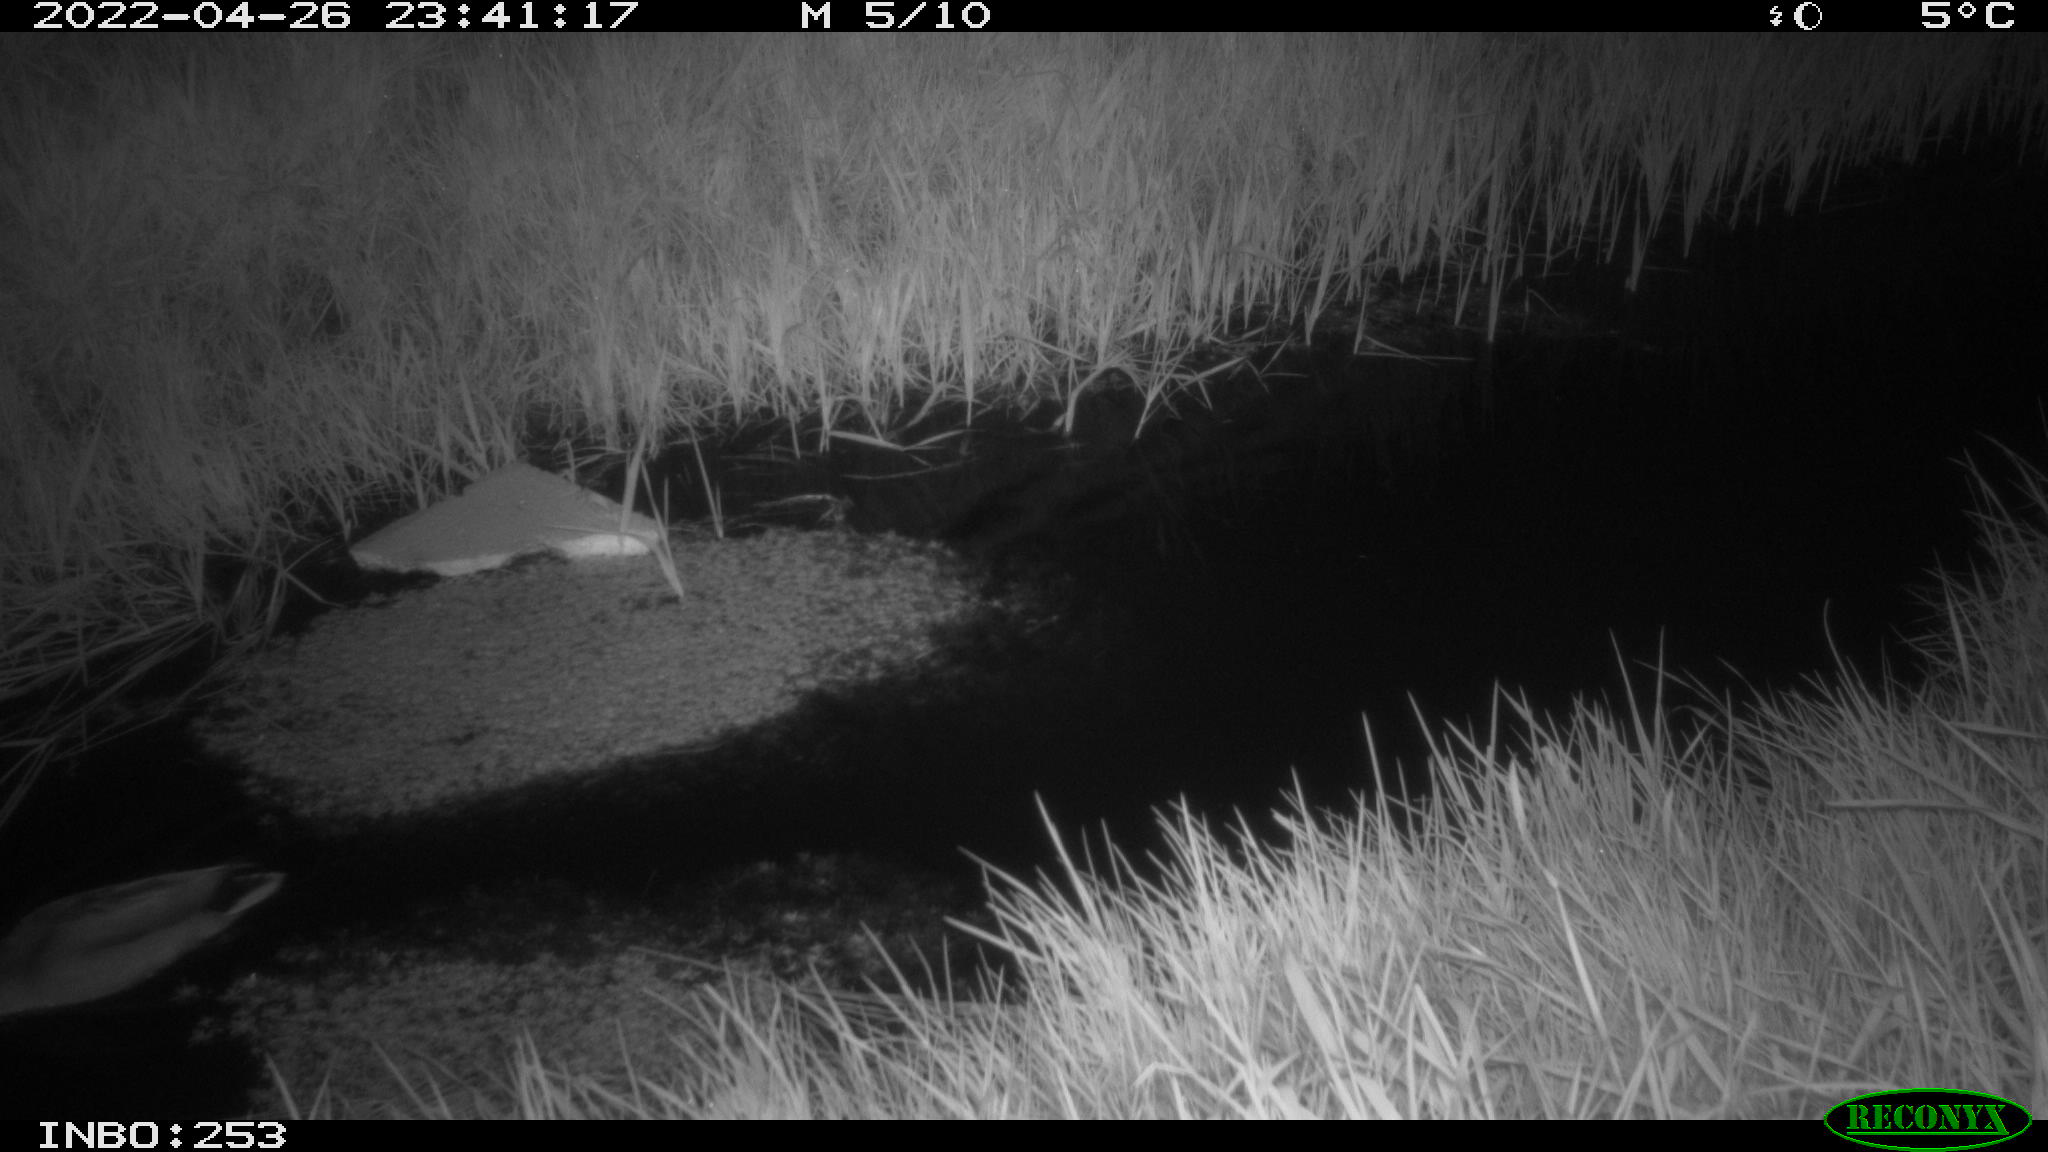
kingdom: Animalia
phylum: Chordata
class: Aves
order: Anseriformes
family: Anatidae
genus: Anas
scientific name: Anas platyrhynchos
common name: Mallard
